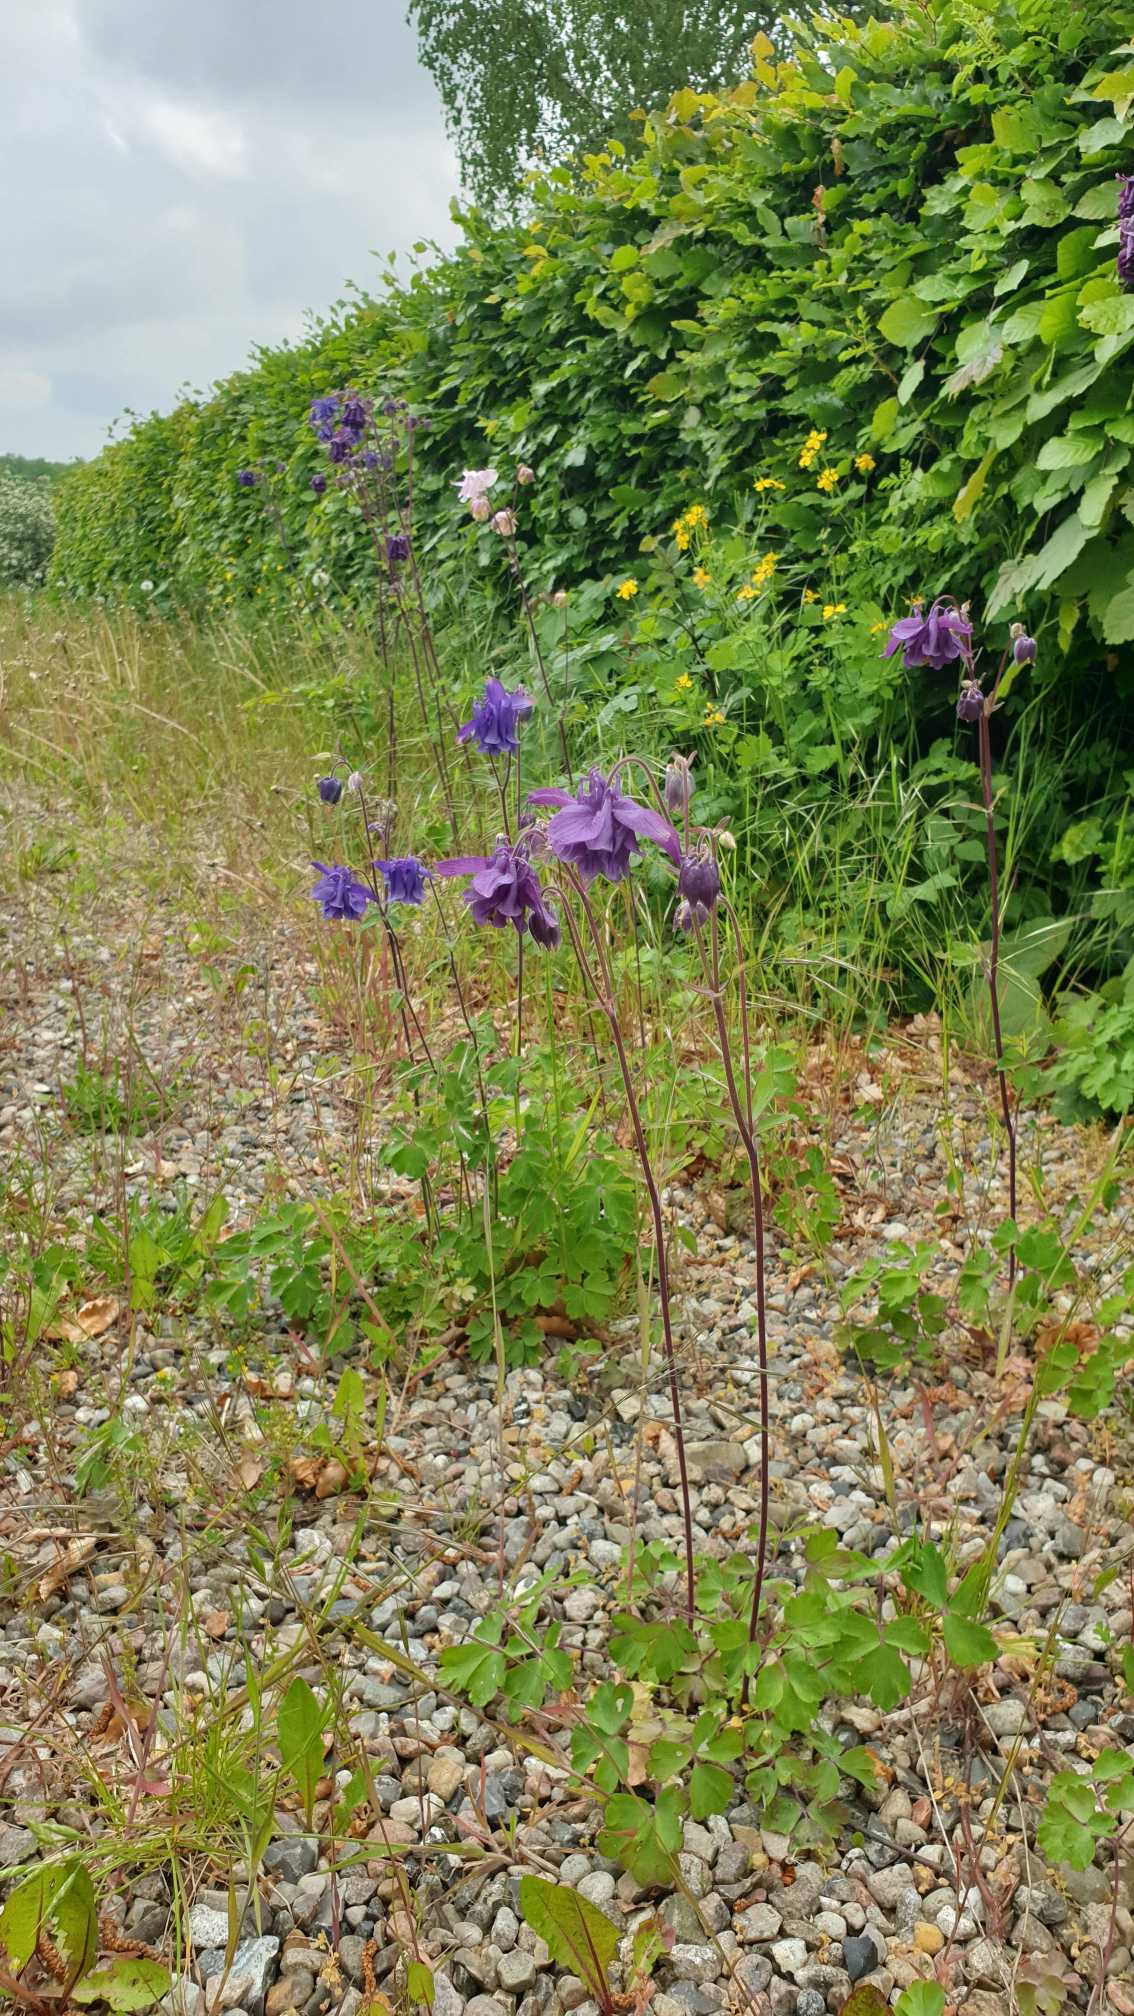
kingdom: Plantae
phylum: Tracheophyta
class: Magnoliopsida
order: Ranunculales
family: Ranunculaceae
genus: Aquilegia
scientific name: Aquilegia vulgaris
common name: Akeleje
